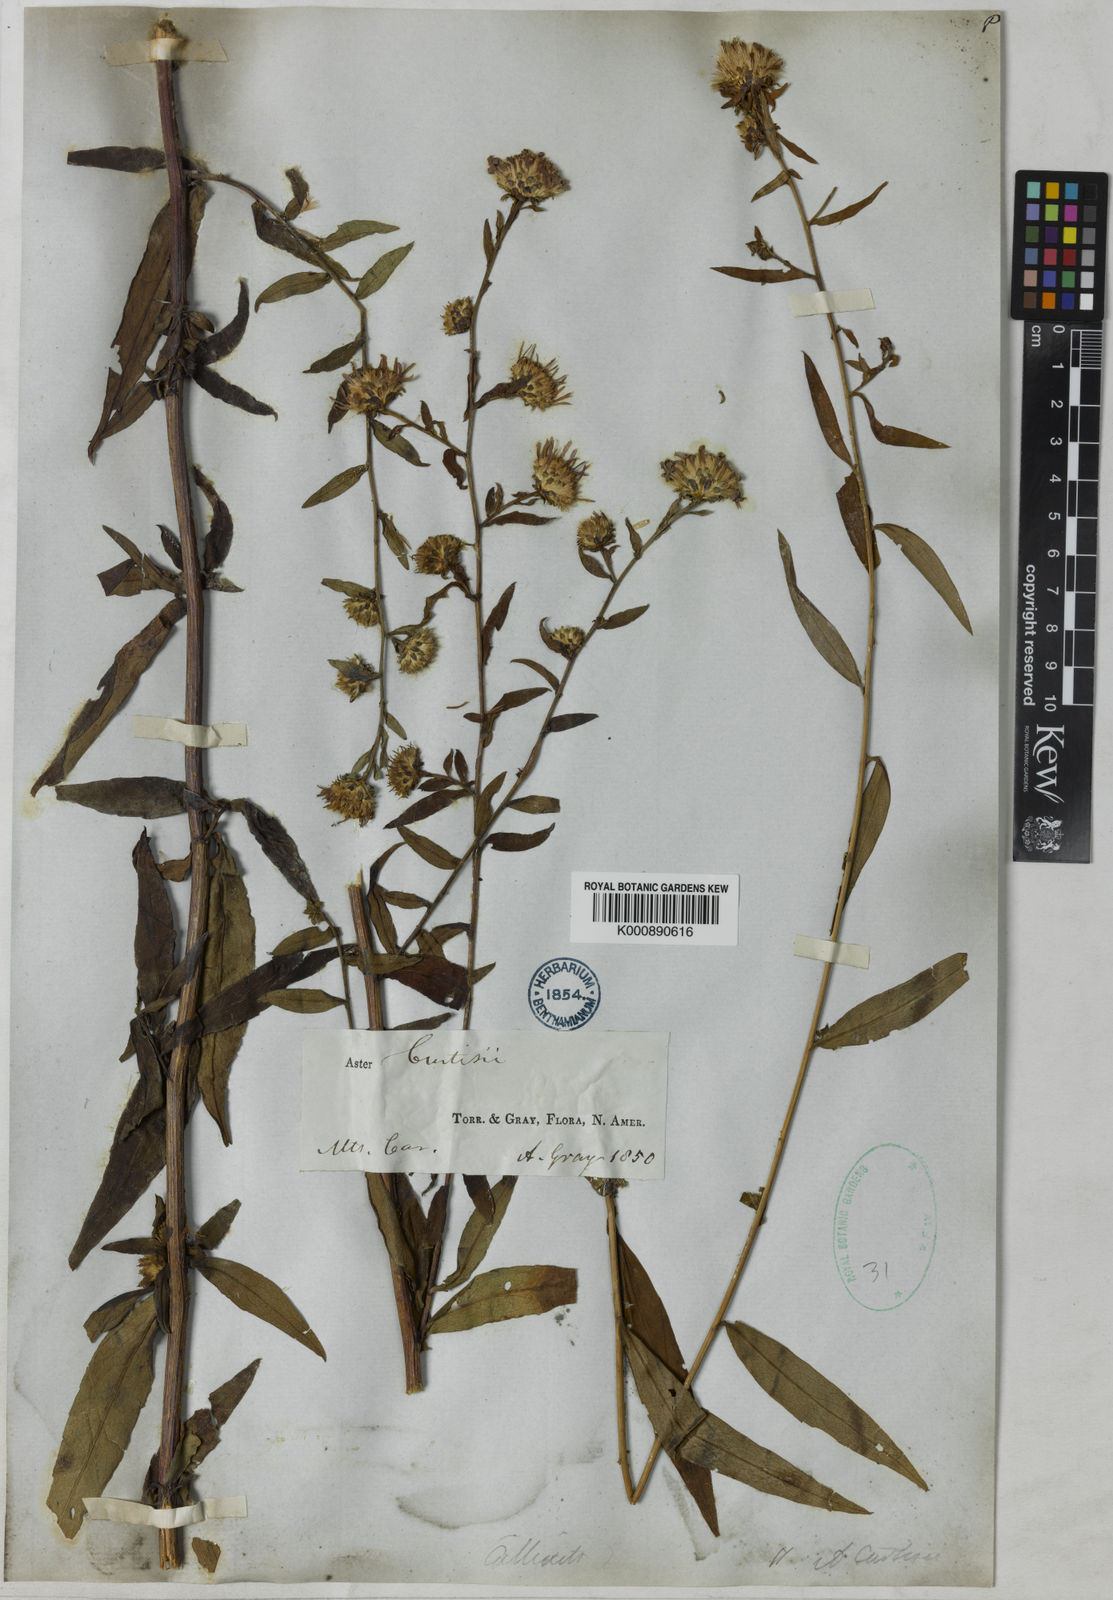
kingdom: Plantae
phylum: Tracheophyta
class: Magnoliopsida
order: Asterales
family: Asteraceae
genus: Symphyotrichum
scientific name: Symphyotrichum retroflexum
